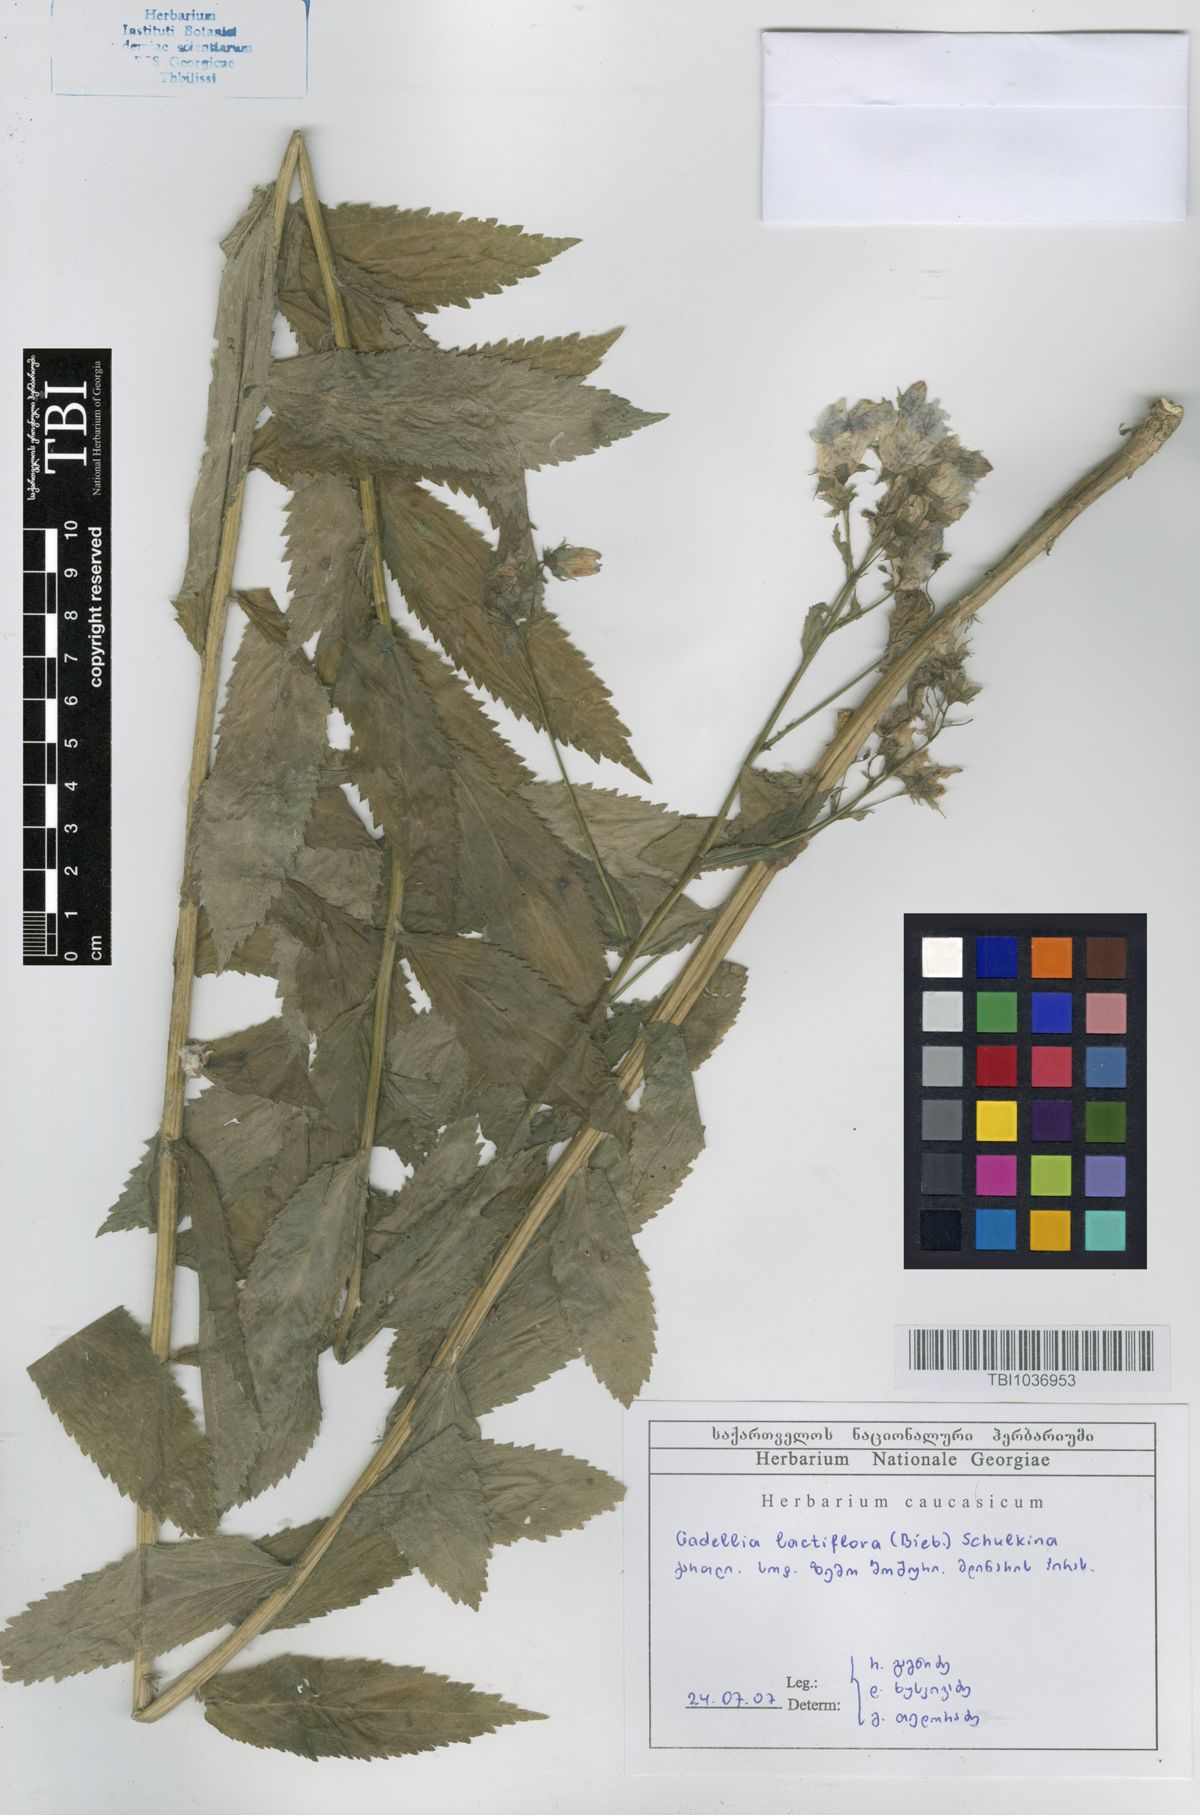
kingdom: Plantae
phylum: Tracheophyta
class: Magnoliopsida
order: Asterales
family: Campanulaceae
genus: Campanula
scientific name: Campanula lactiflora
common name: Milky bellflower
